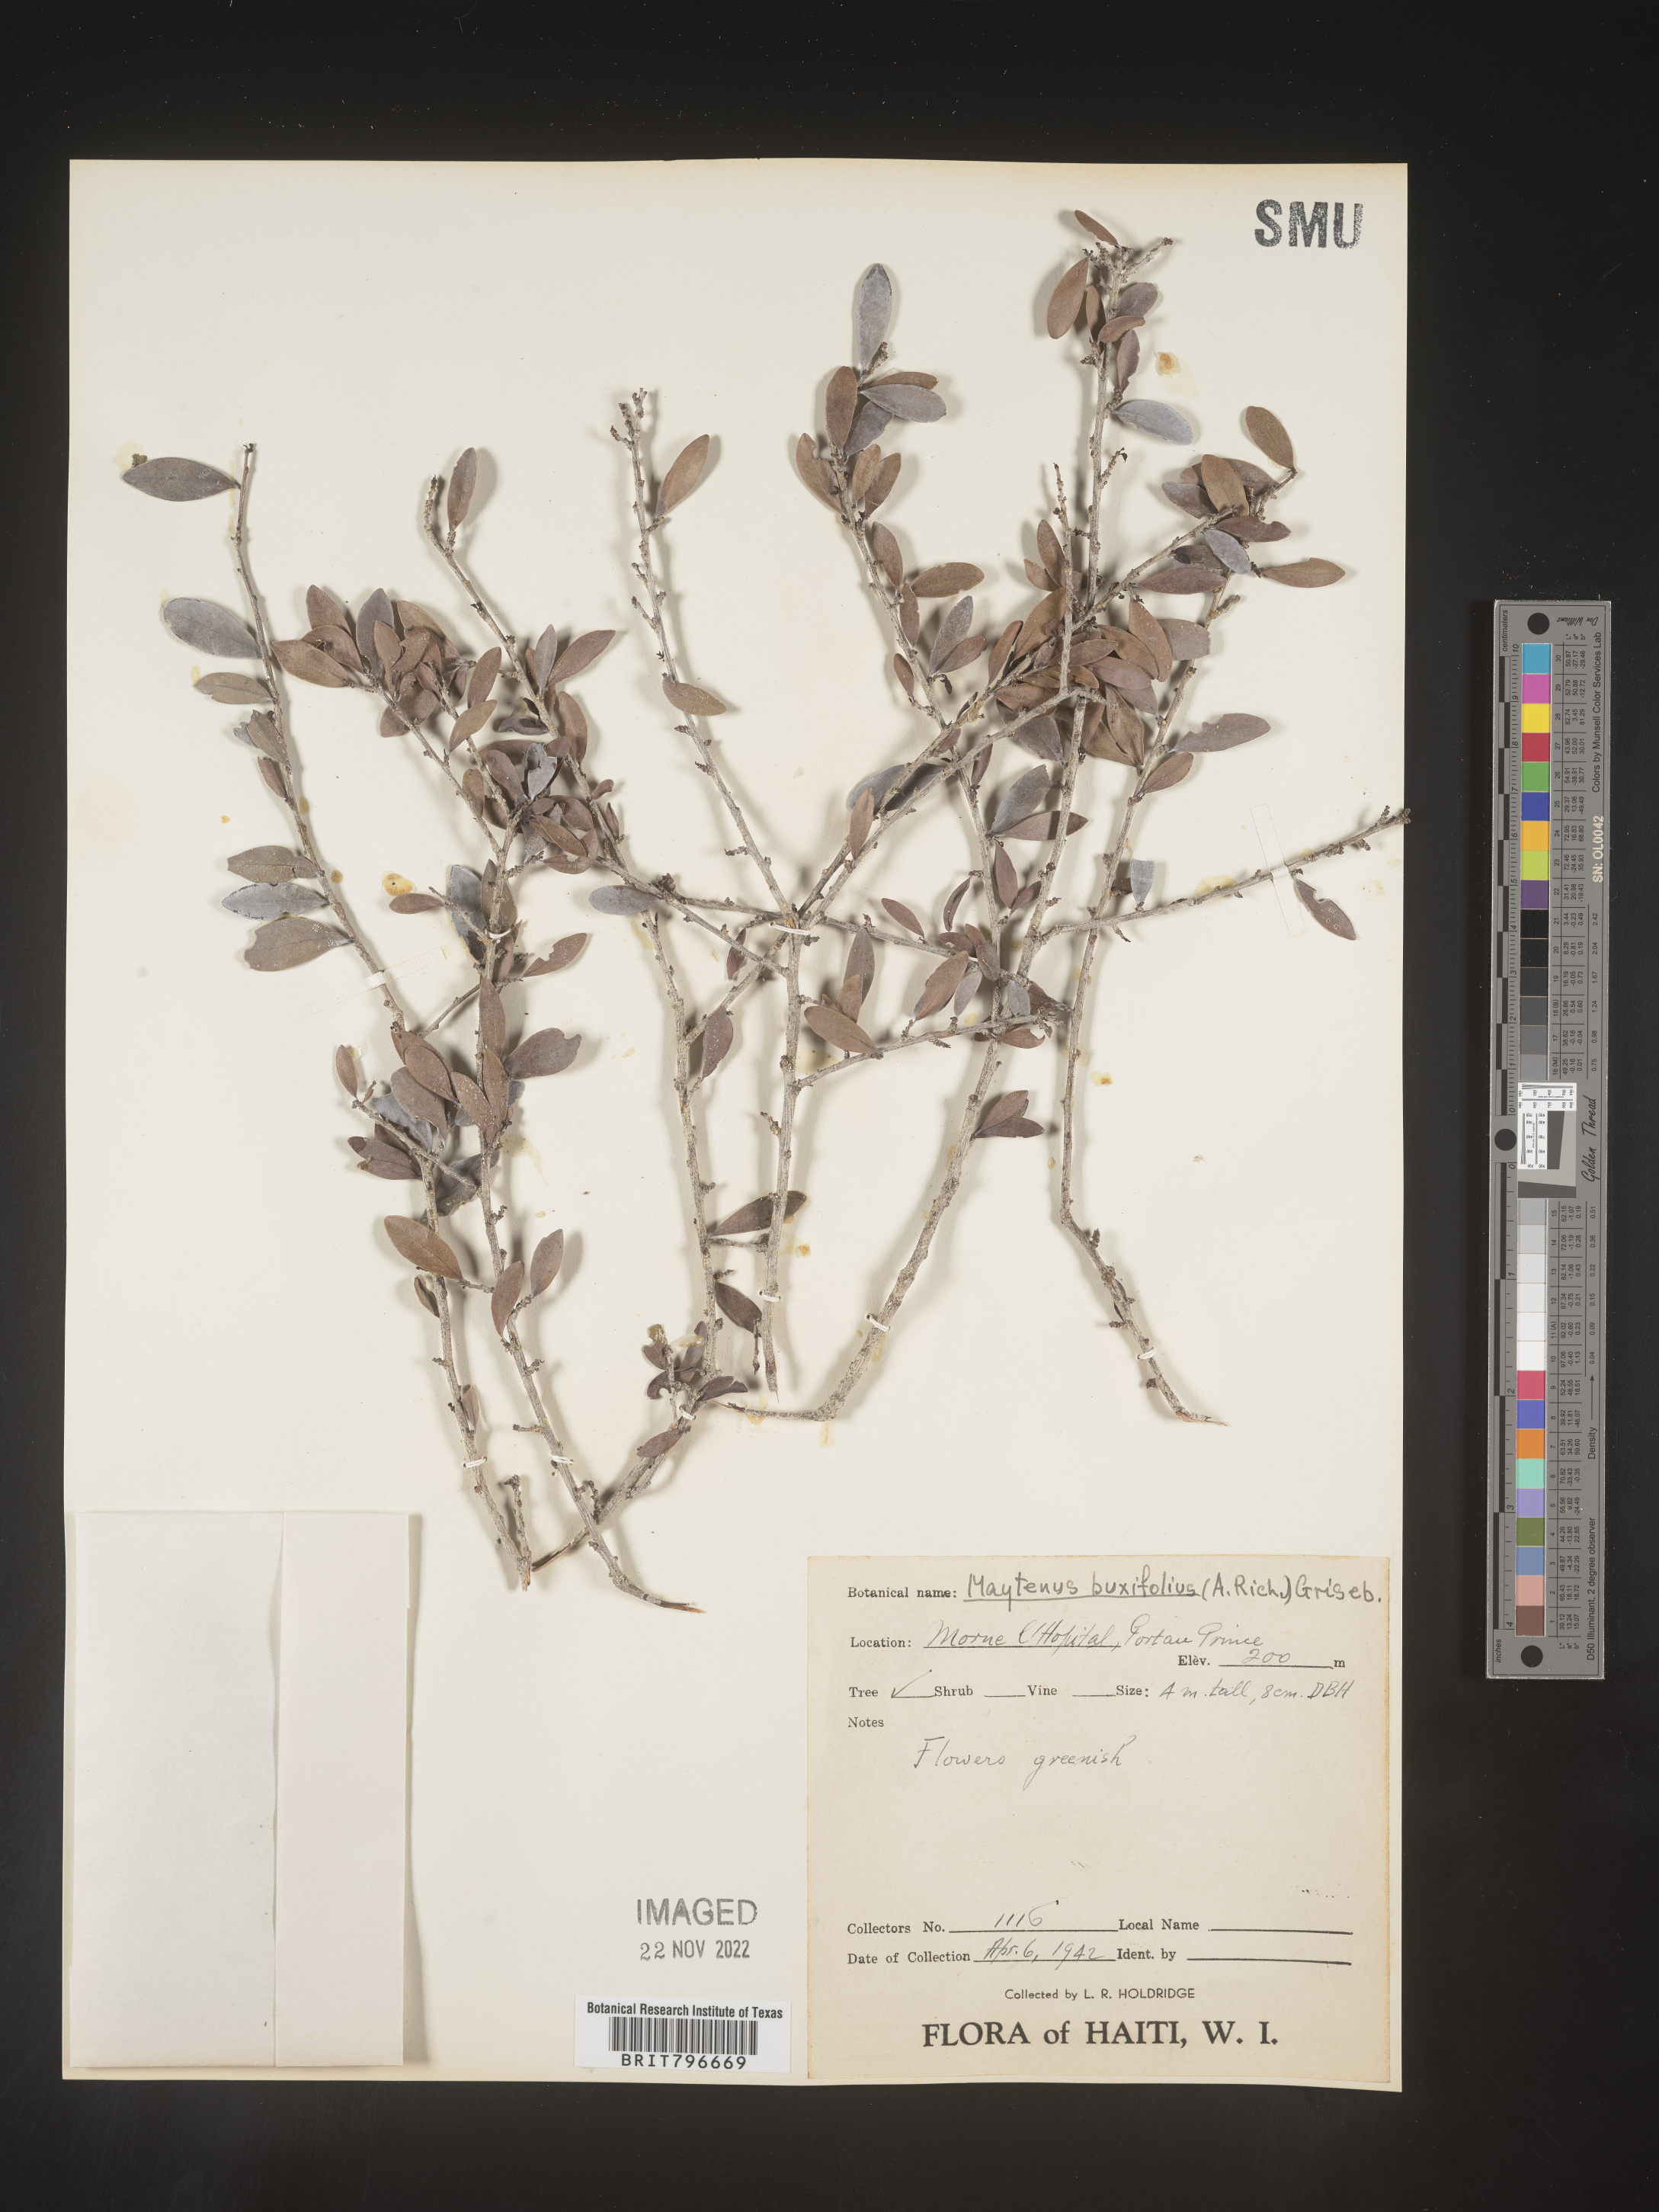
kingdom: Plantae
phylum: Tracheophyta
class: Magnoliopsida
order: Celastrales
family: Celastraceae
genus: Maytenus
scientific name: Maytenus
